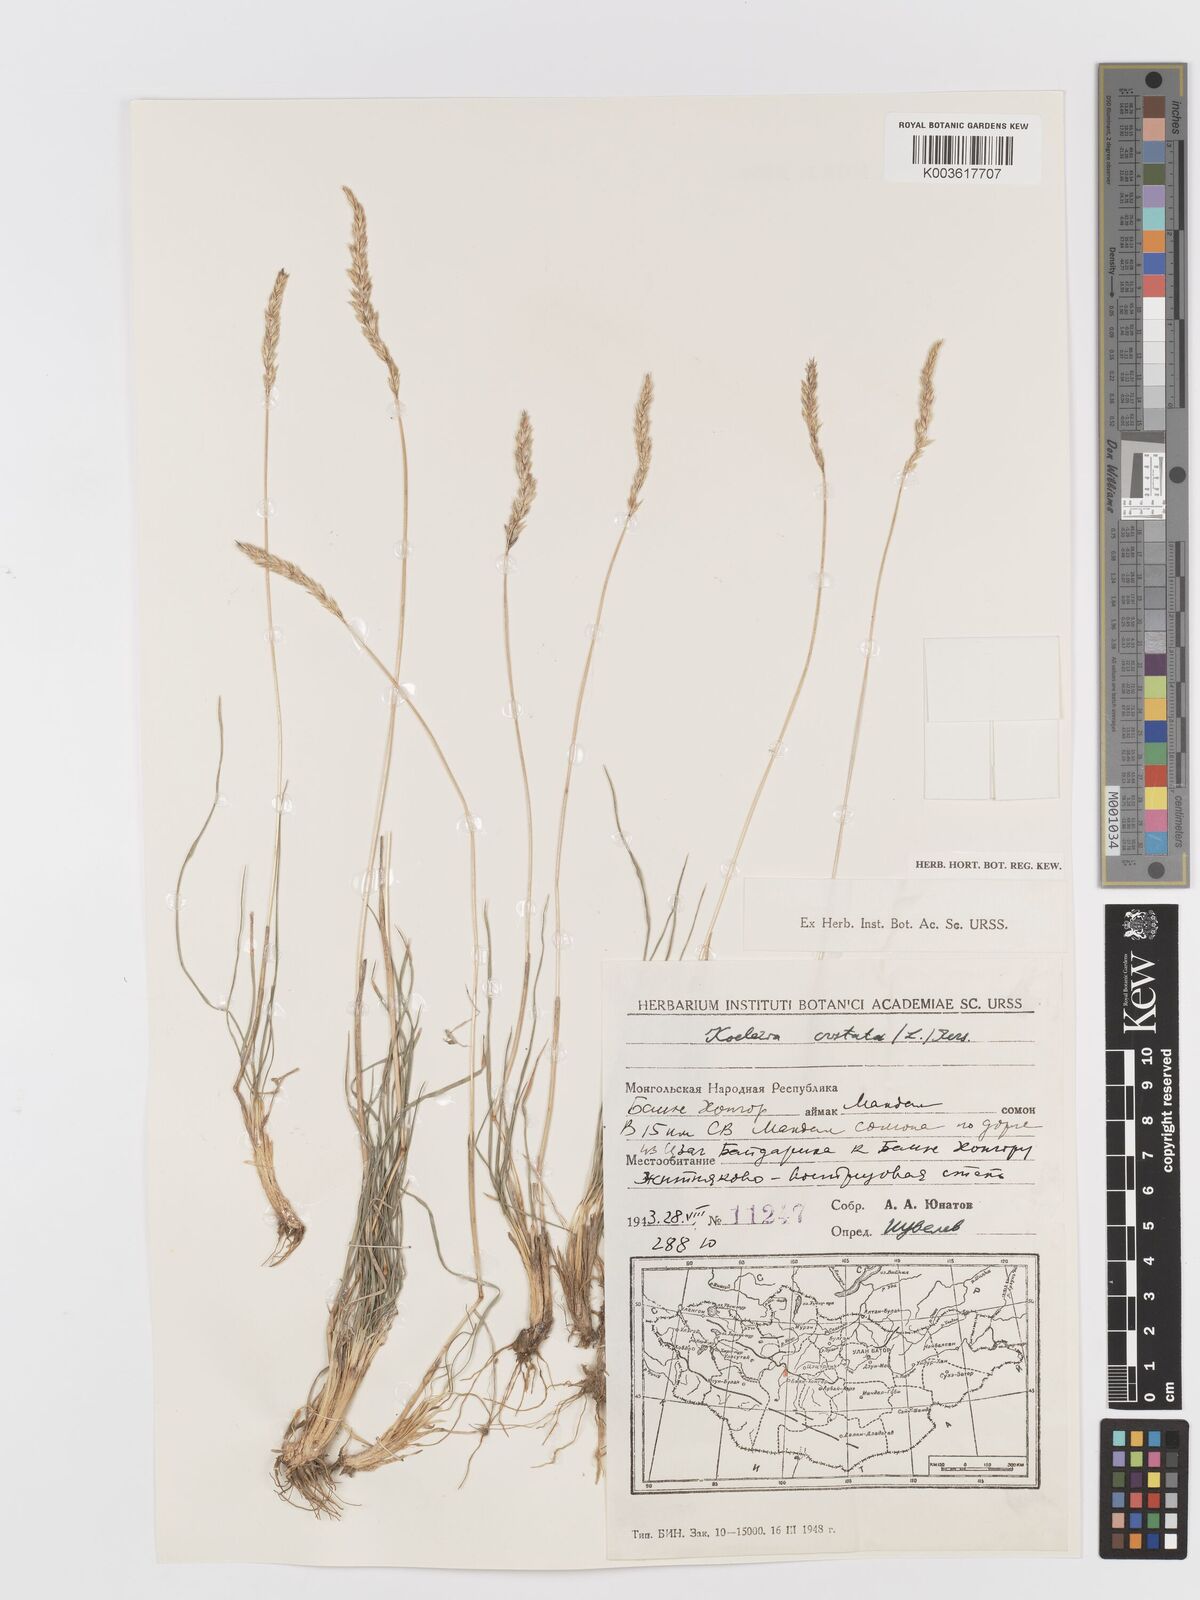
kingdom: Plantae
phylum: Tracheophyta
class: Liliopsida
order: Poales
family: Poaceae
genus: Koeleria
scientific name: Koeleria pyramidata
